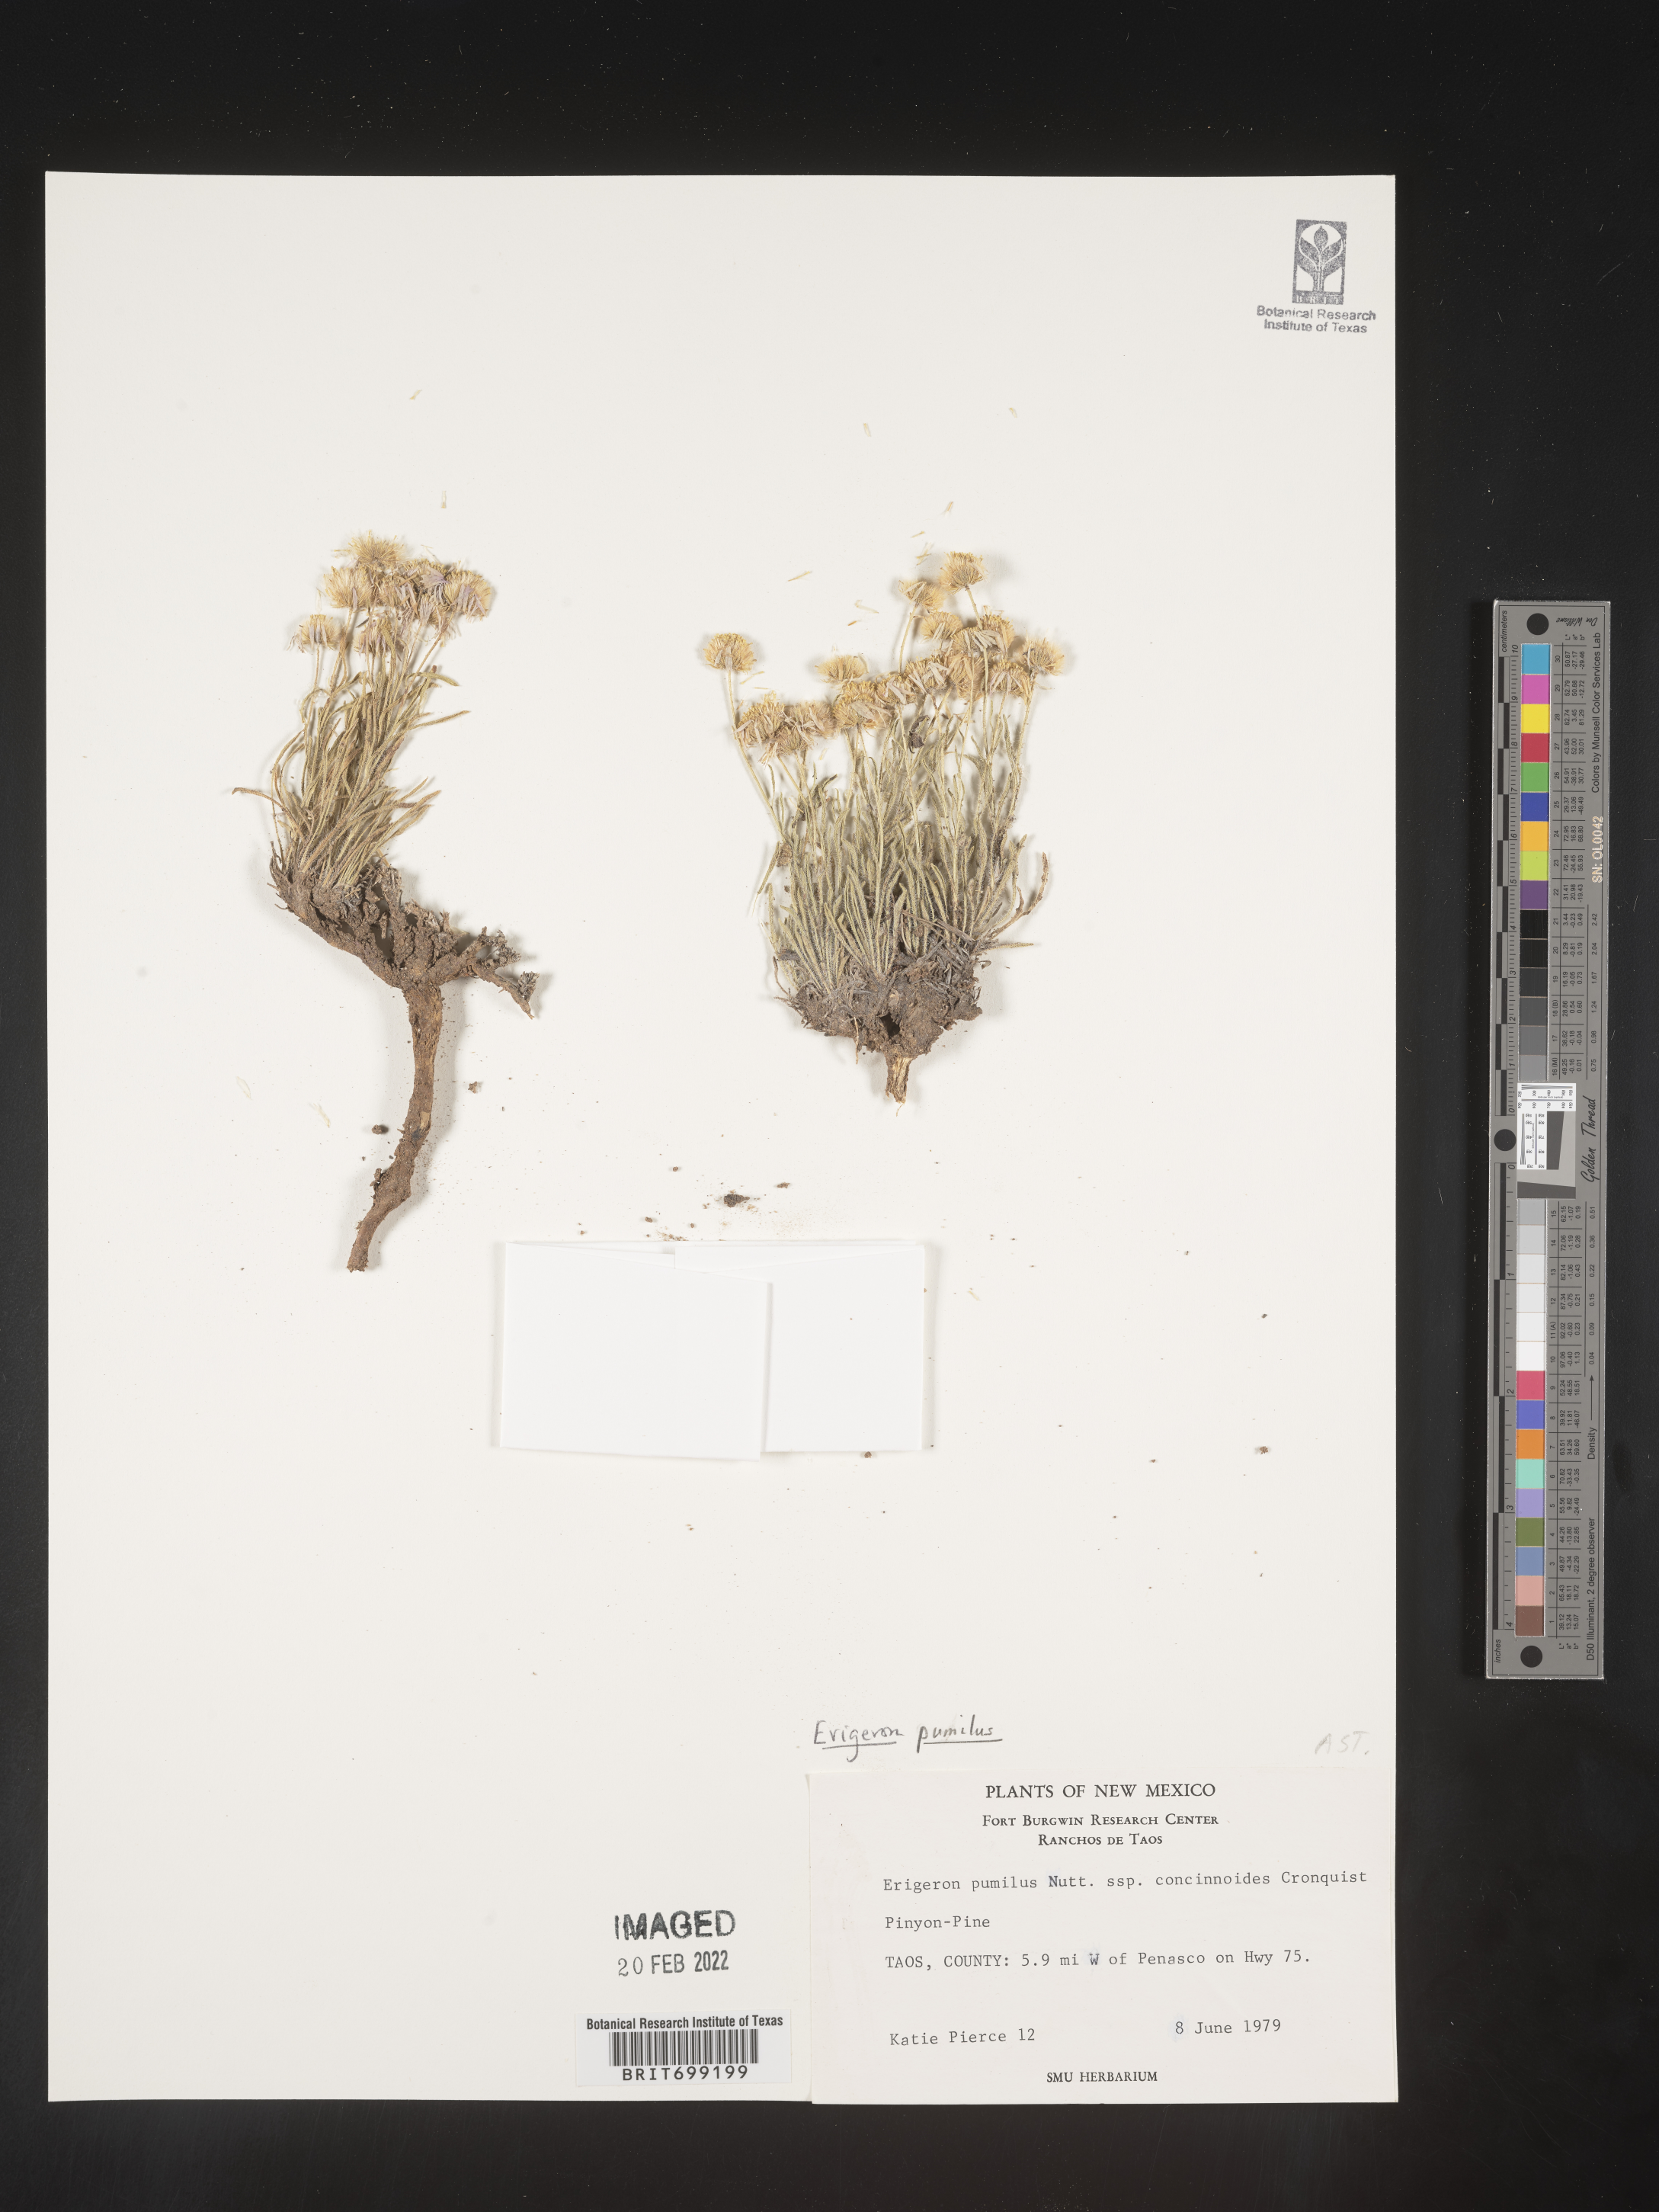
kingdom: Plantae
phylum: Tracheophyta
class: Magnoliopsida
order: Asterales
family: Asteraceae
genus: Erigeron
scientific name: Erigeron pumilus
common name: Shaggy fleabane
